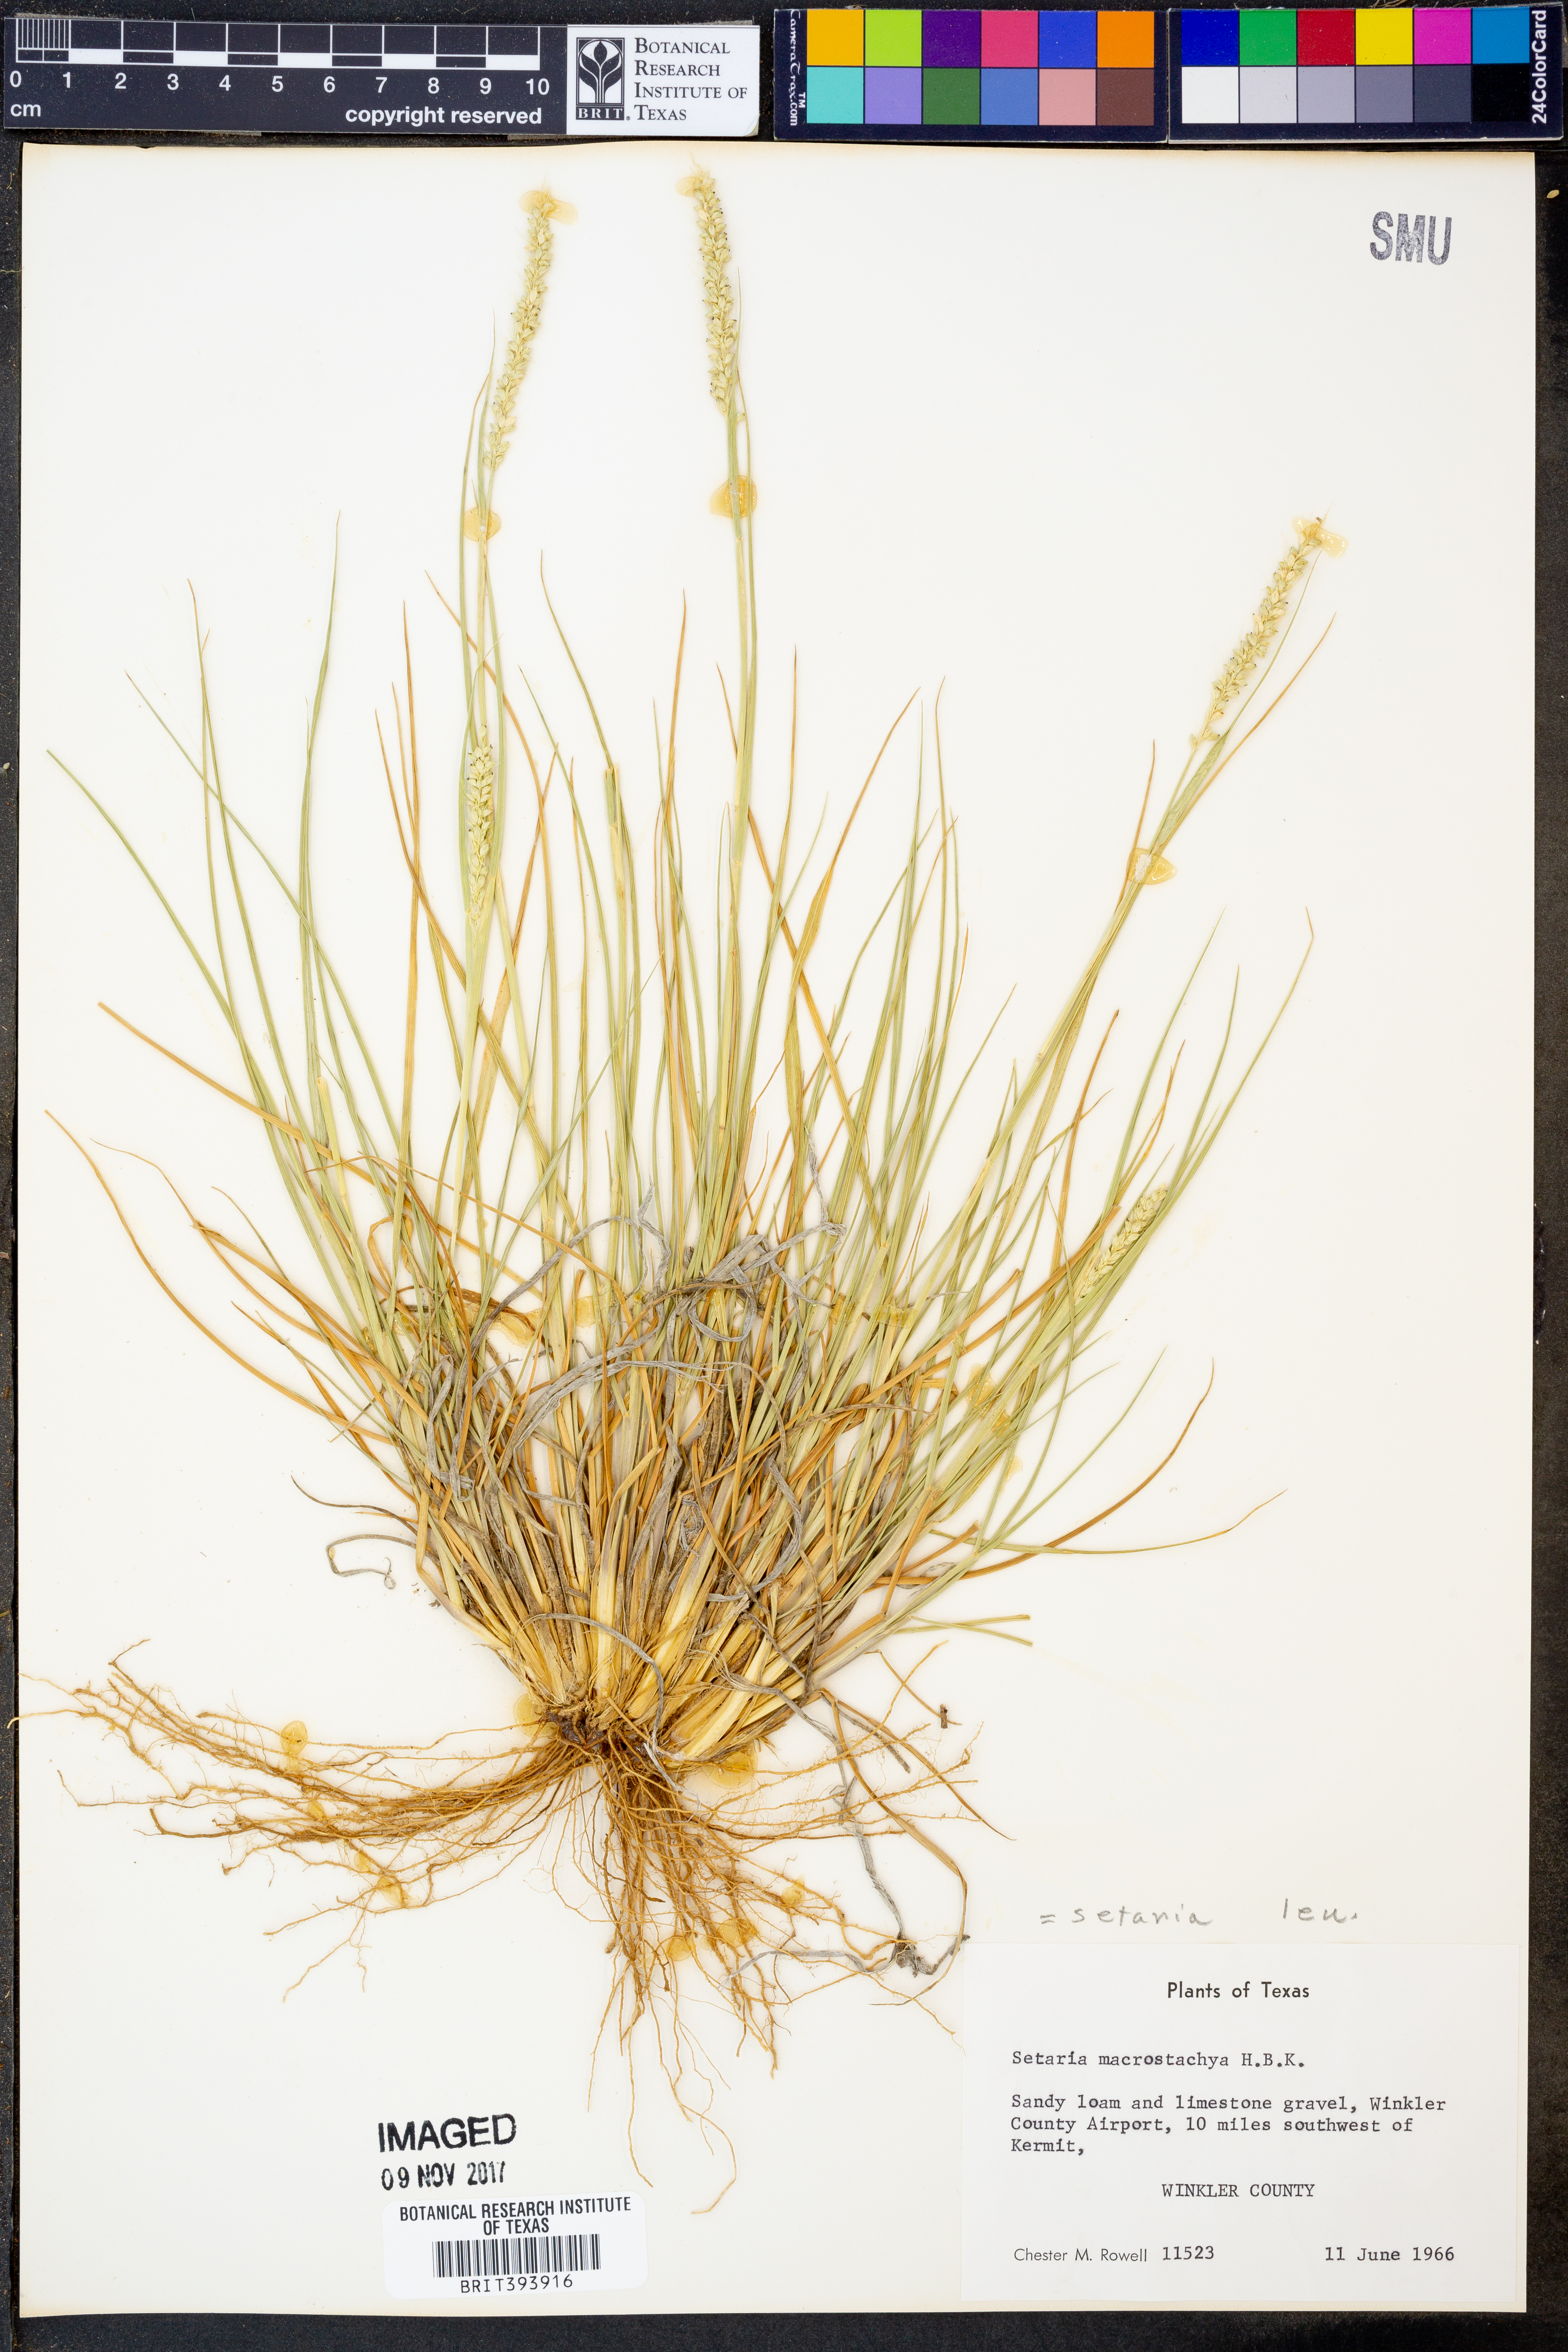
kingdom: Plantae
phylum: Tracheophyta
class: Liliopsida
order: Poales
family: Poaceae
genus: Setaria
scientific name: Setaria leucopila
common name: Plains bristle grass
